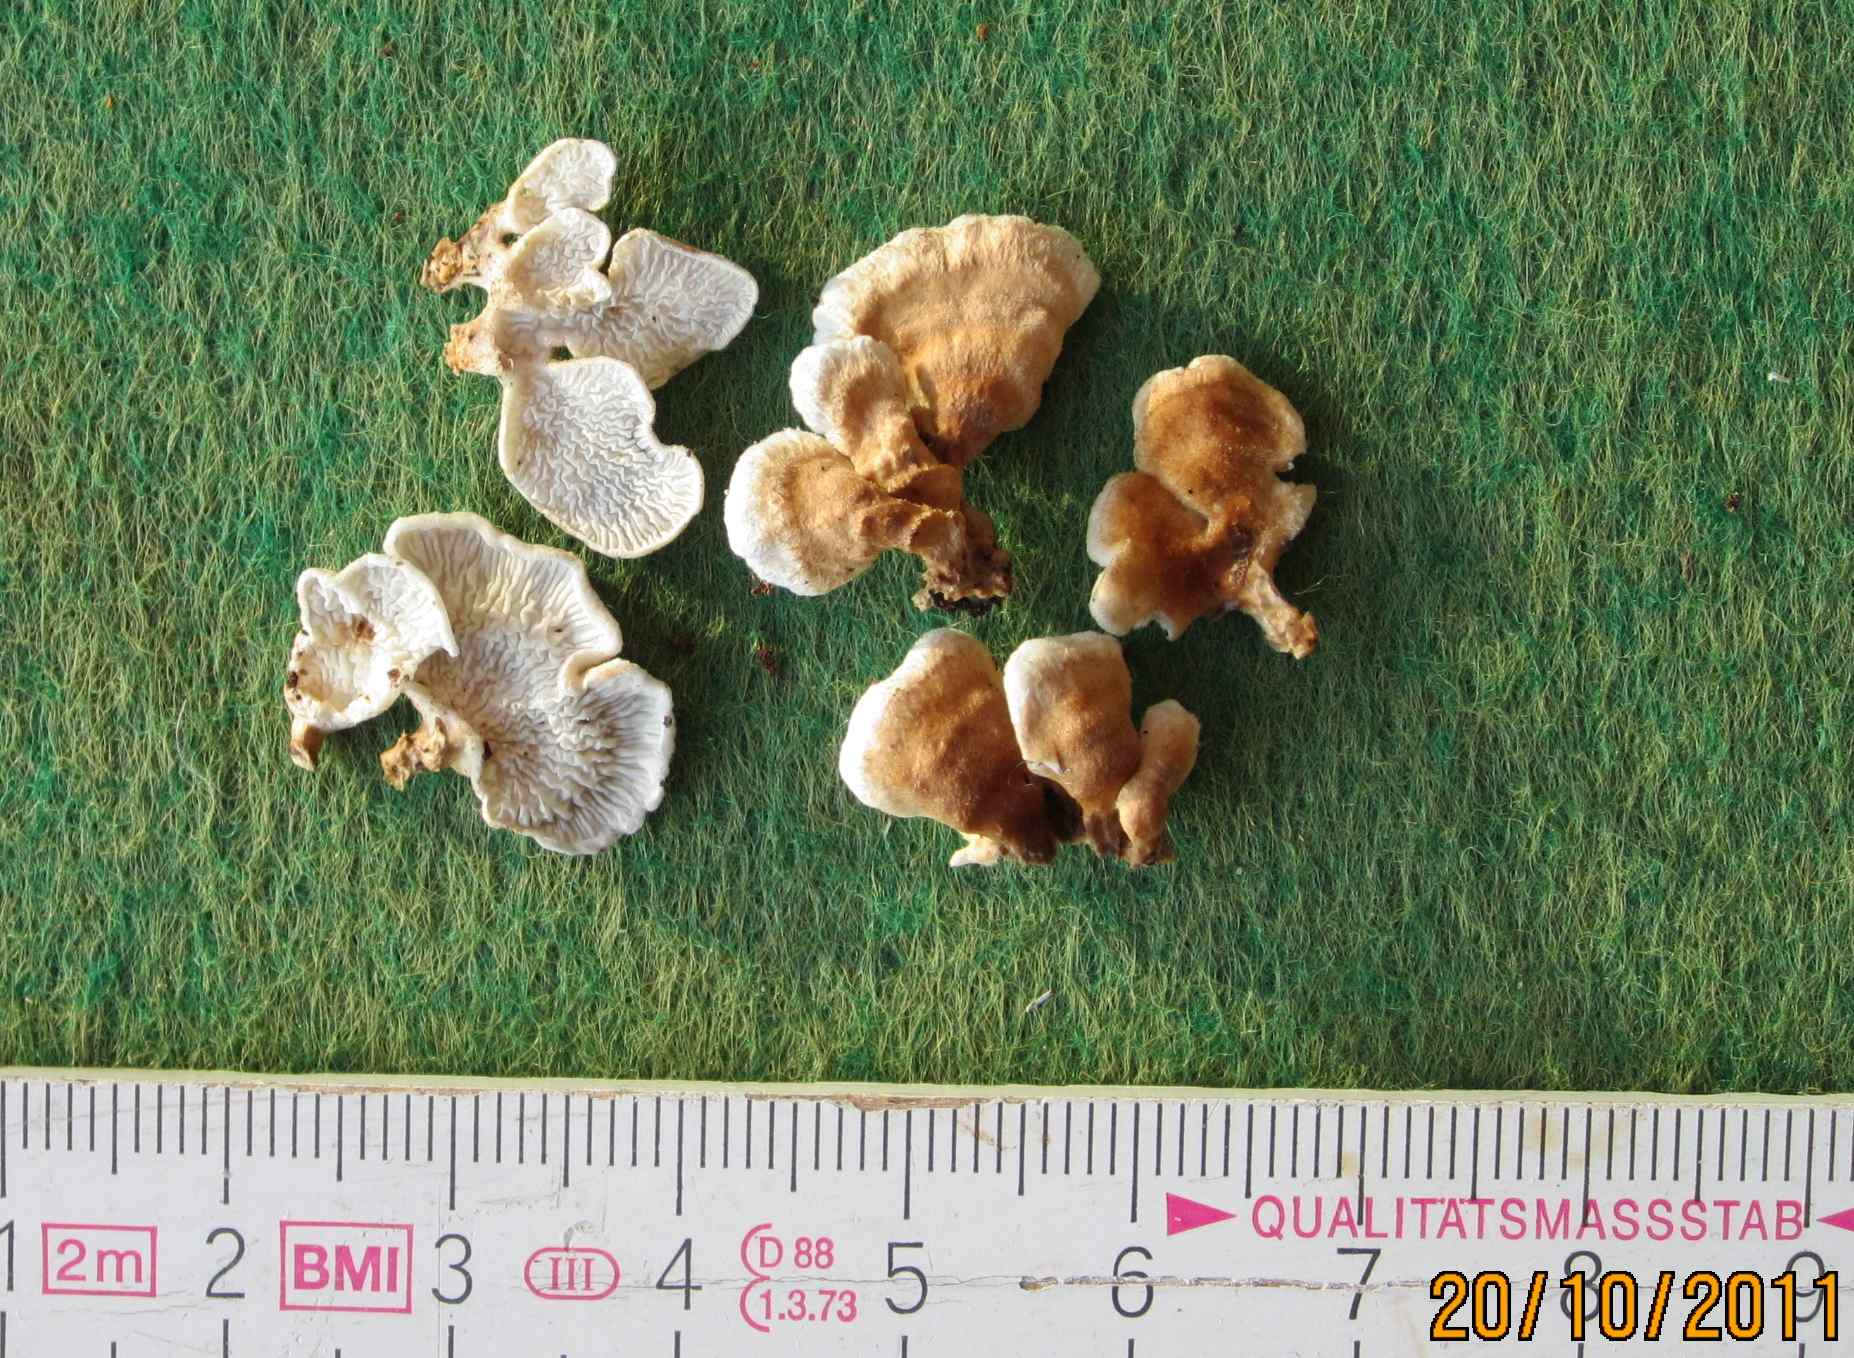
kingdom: Fungi
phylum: Basidiomycota
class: Agaricomycetes
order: Amylocorticiales
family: Amylocorticiaceae
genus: Plicaturopsis
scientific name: Plicaturopsis crispa
